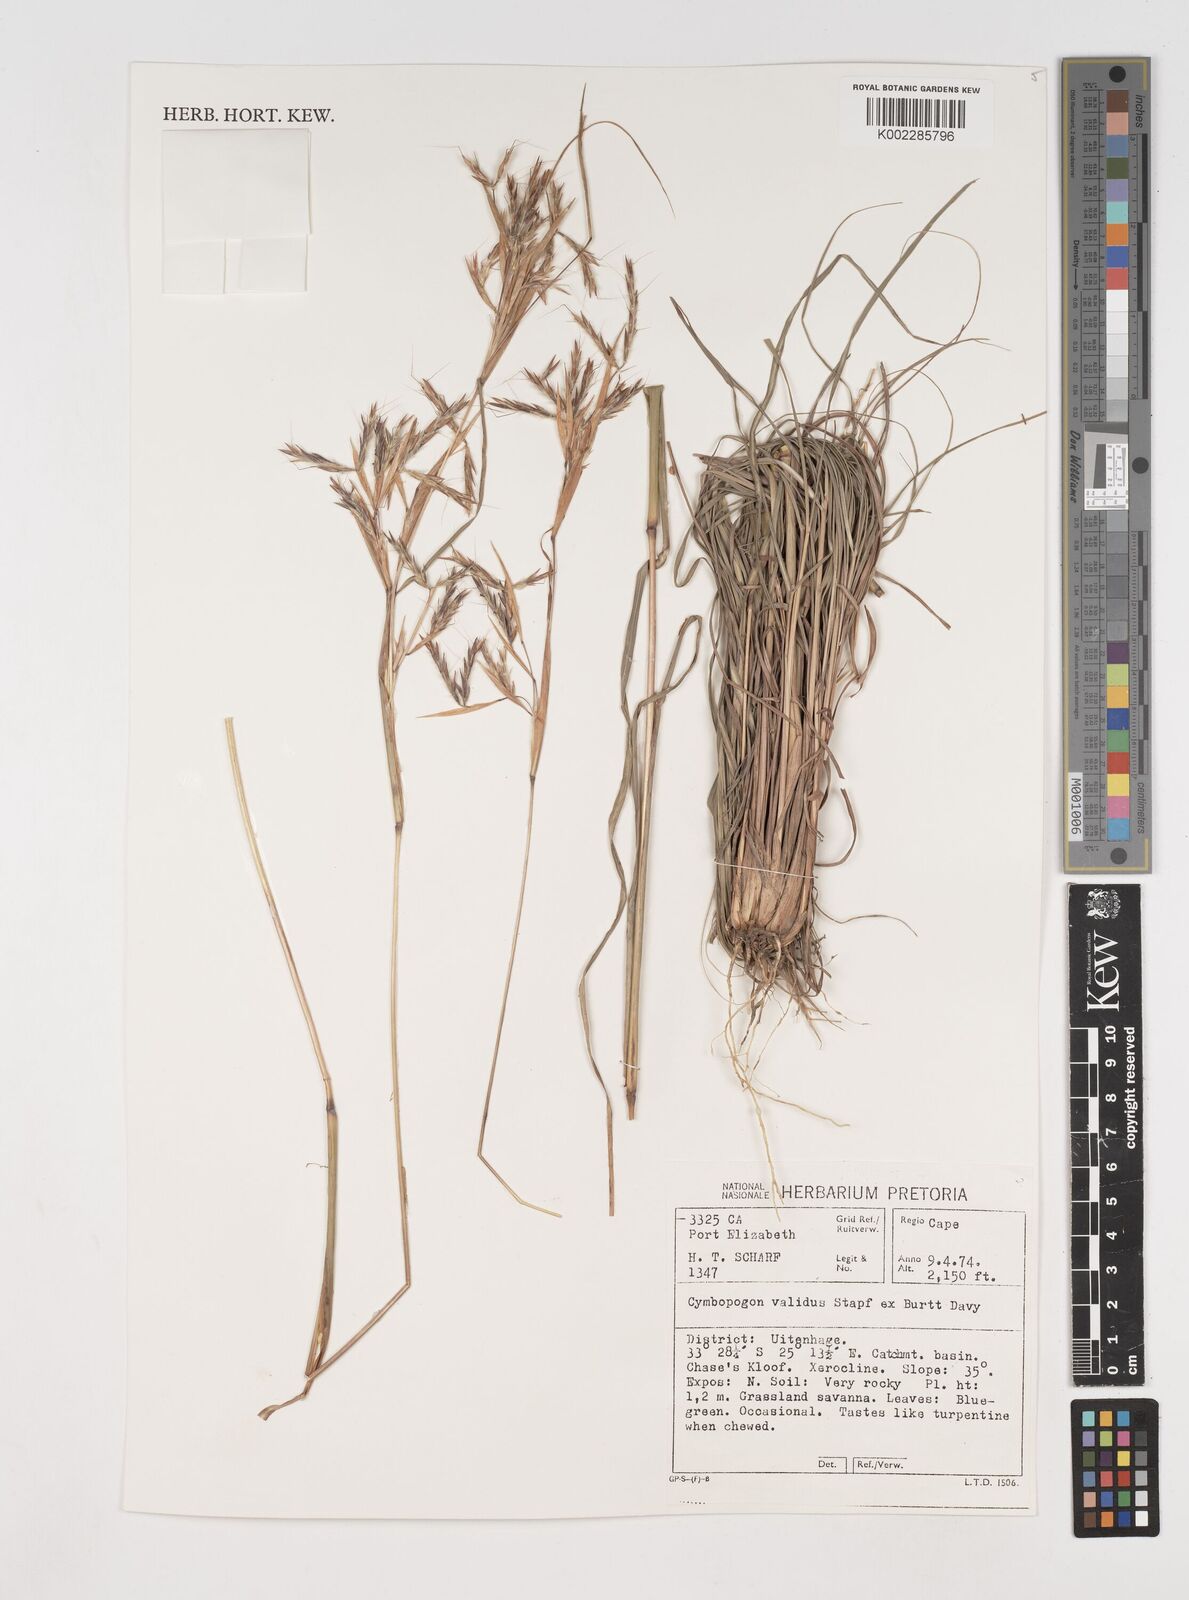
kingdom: Plantae
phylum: Tracheophyta
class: Liliopsida
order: Poales
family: Poaceae
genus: Cymbopogon
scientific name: Cymbopogon nardus
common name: Giant turpentine grass
